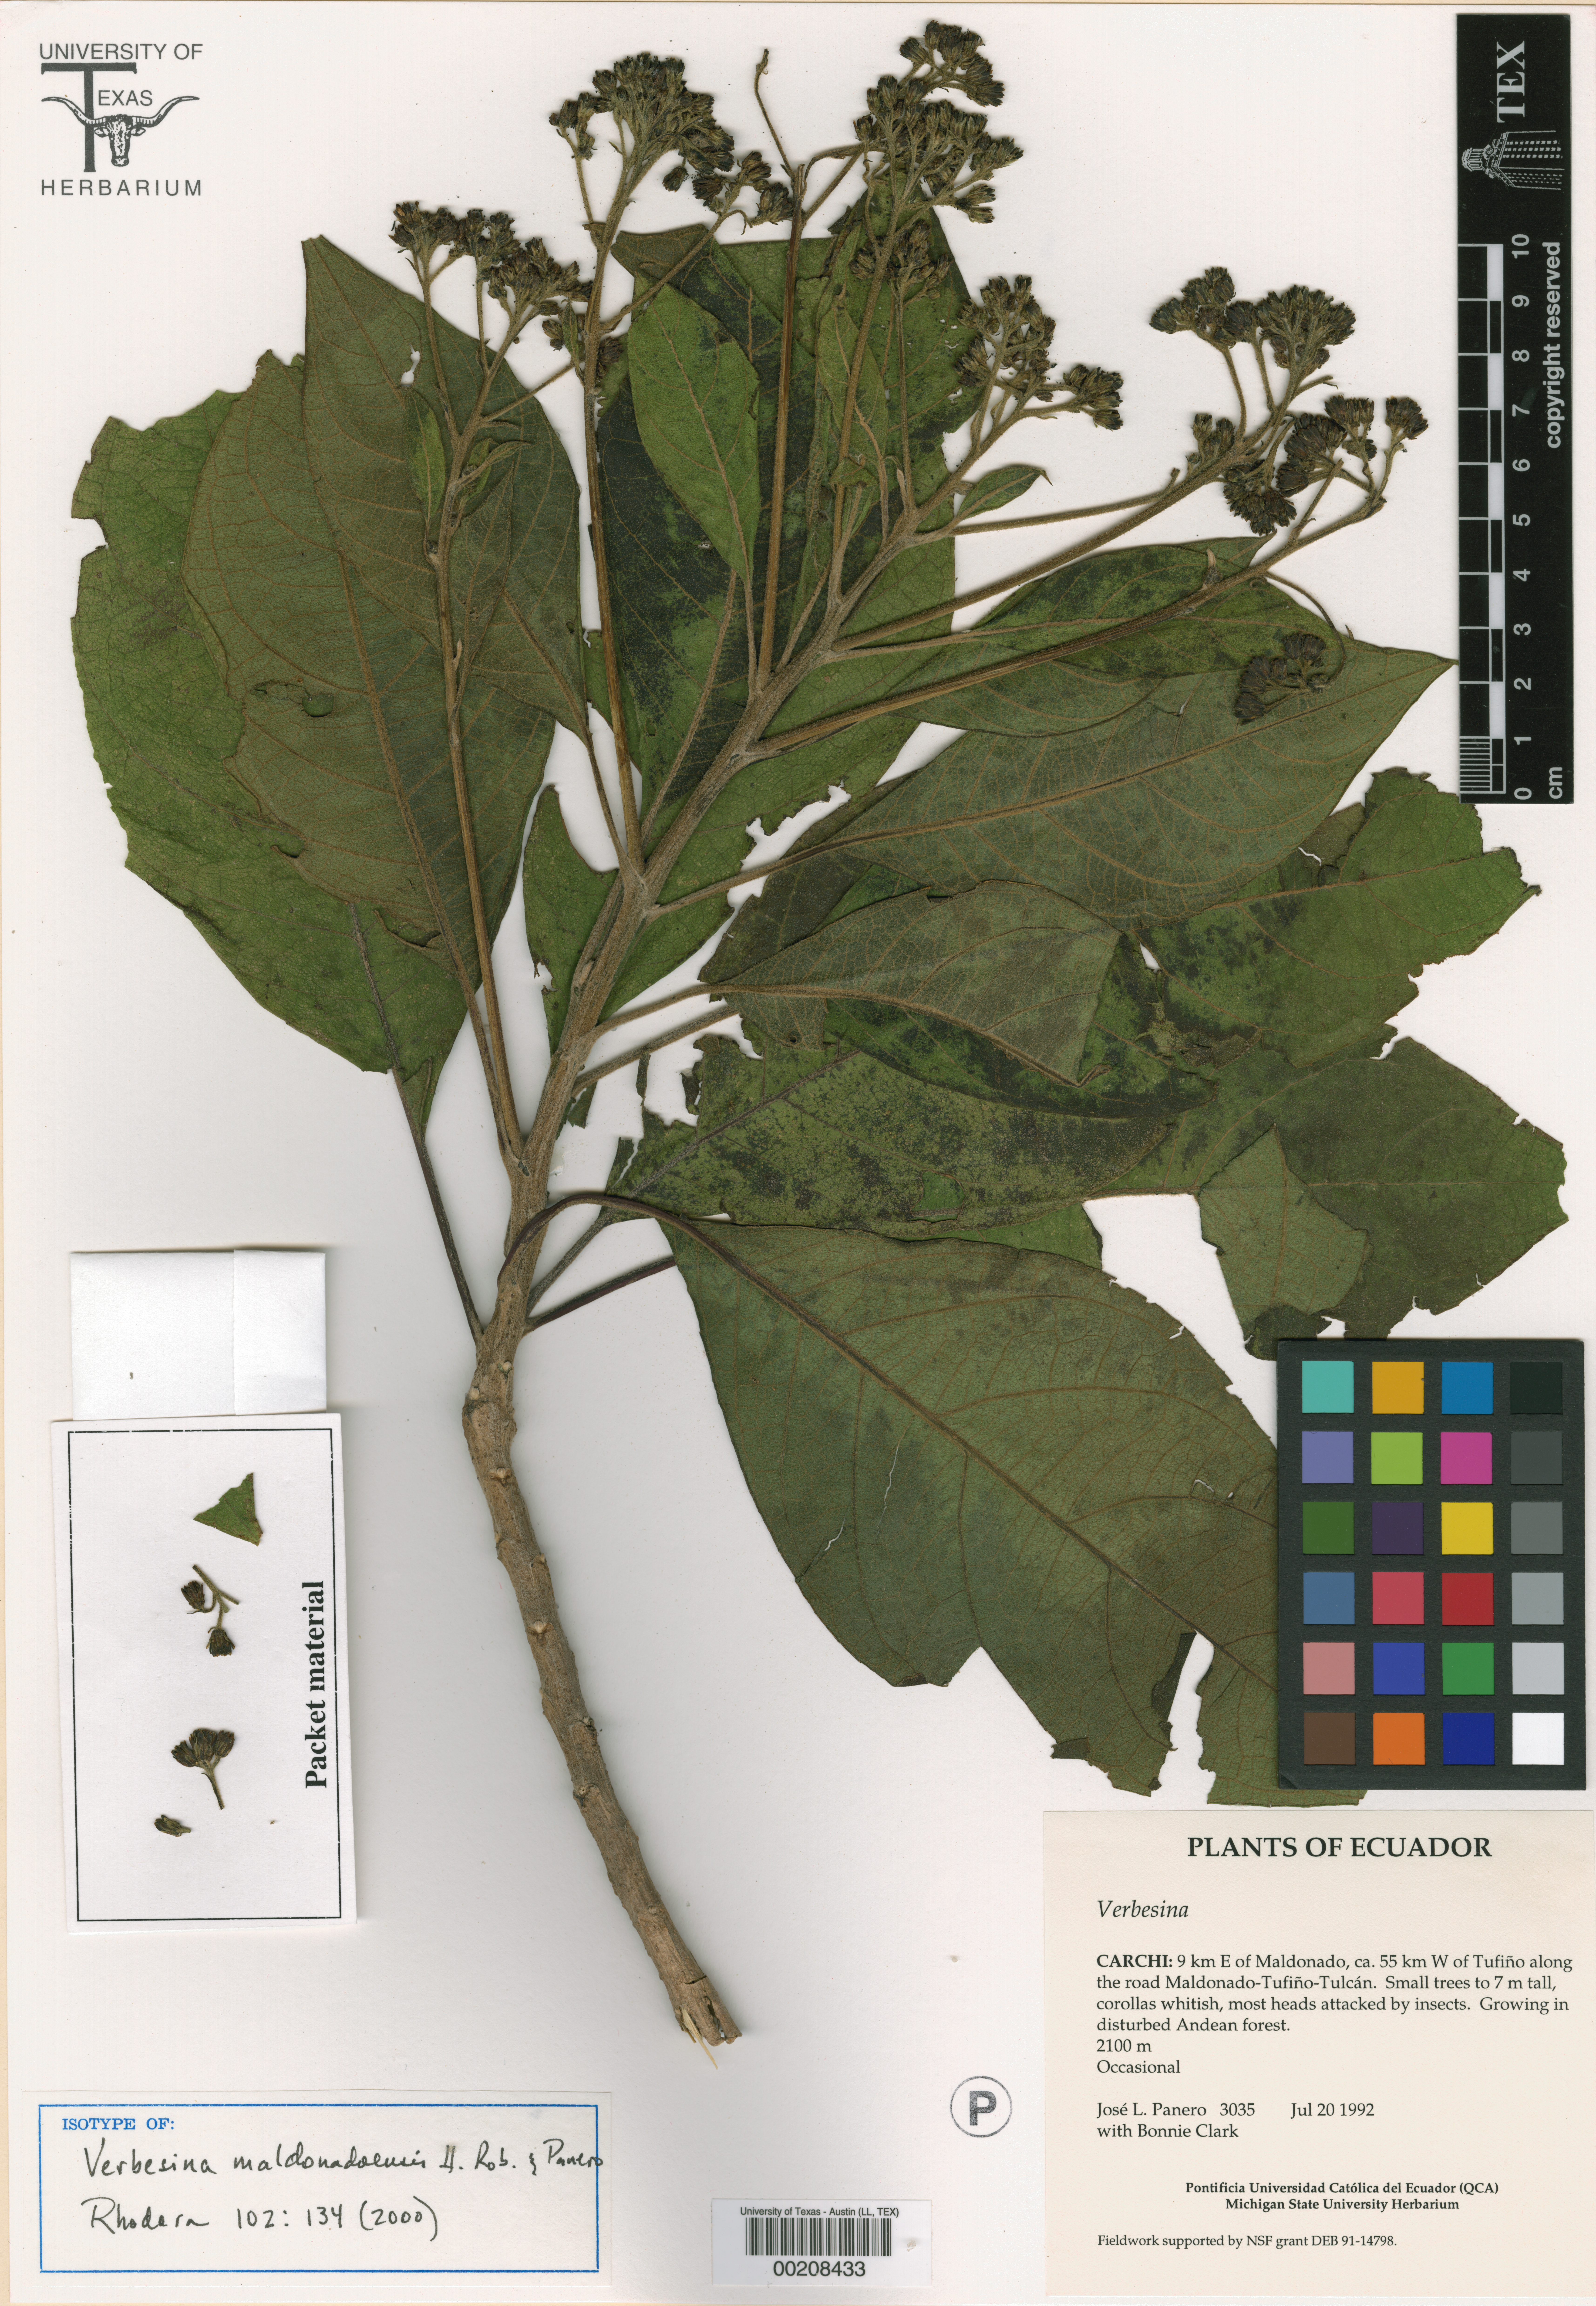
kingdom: Plantae
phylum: Tracheophyta
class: Magnoliopsida
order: Asterales
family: Asteraceae
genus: Verbesina
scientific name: Verbesina maldonadoensis
